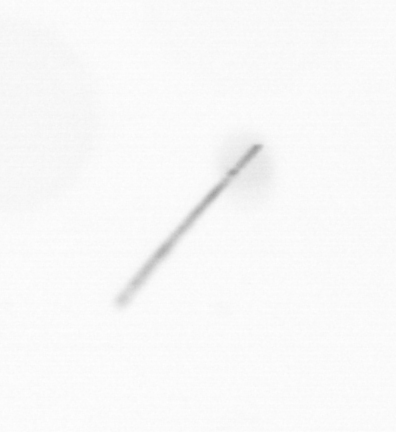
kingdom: Chromista
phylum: Ochrophyta
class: Bacillariophyceae
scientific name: Bacillariophyceae
